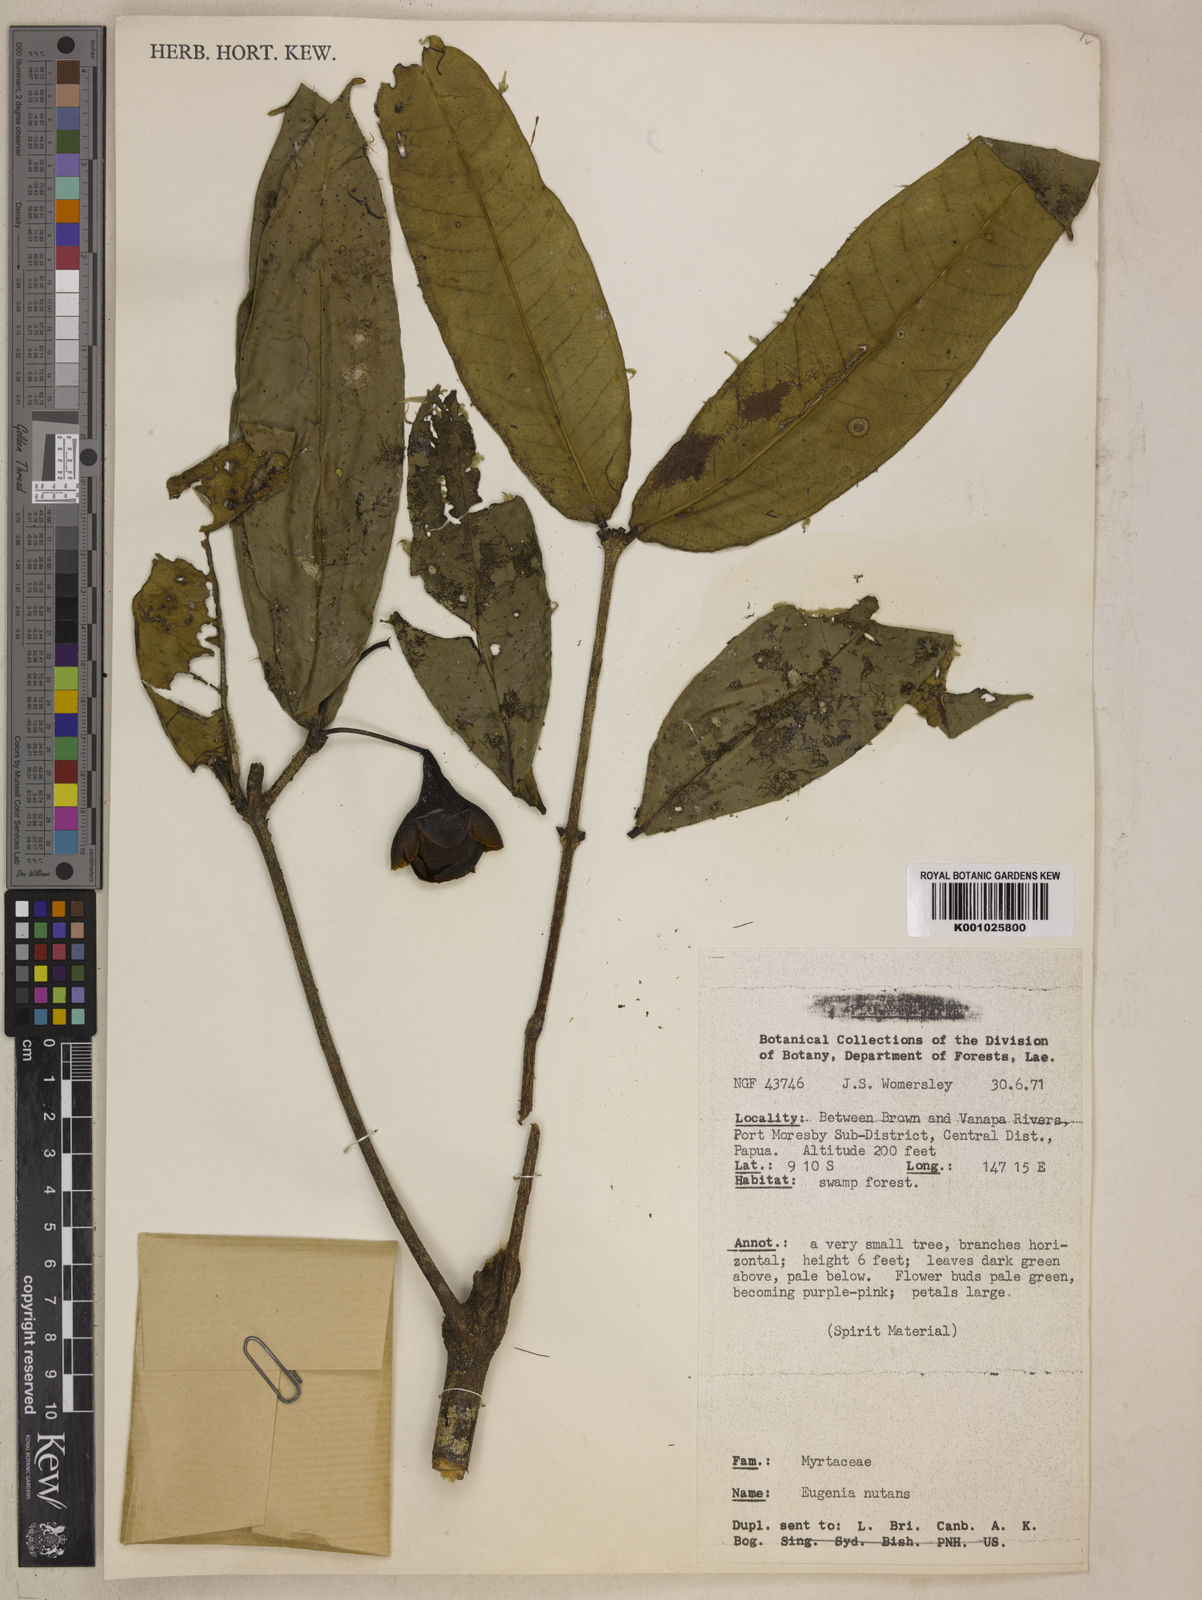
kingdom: Plantae
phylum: Tracheophyta
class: Magnoliopsida
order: Myrtales
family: Myrtaceae
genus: Syzygium
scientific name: Syzygium nutans
